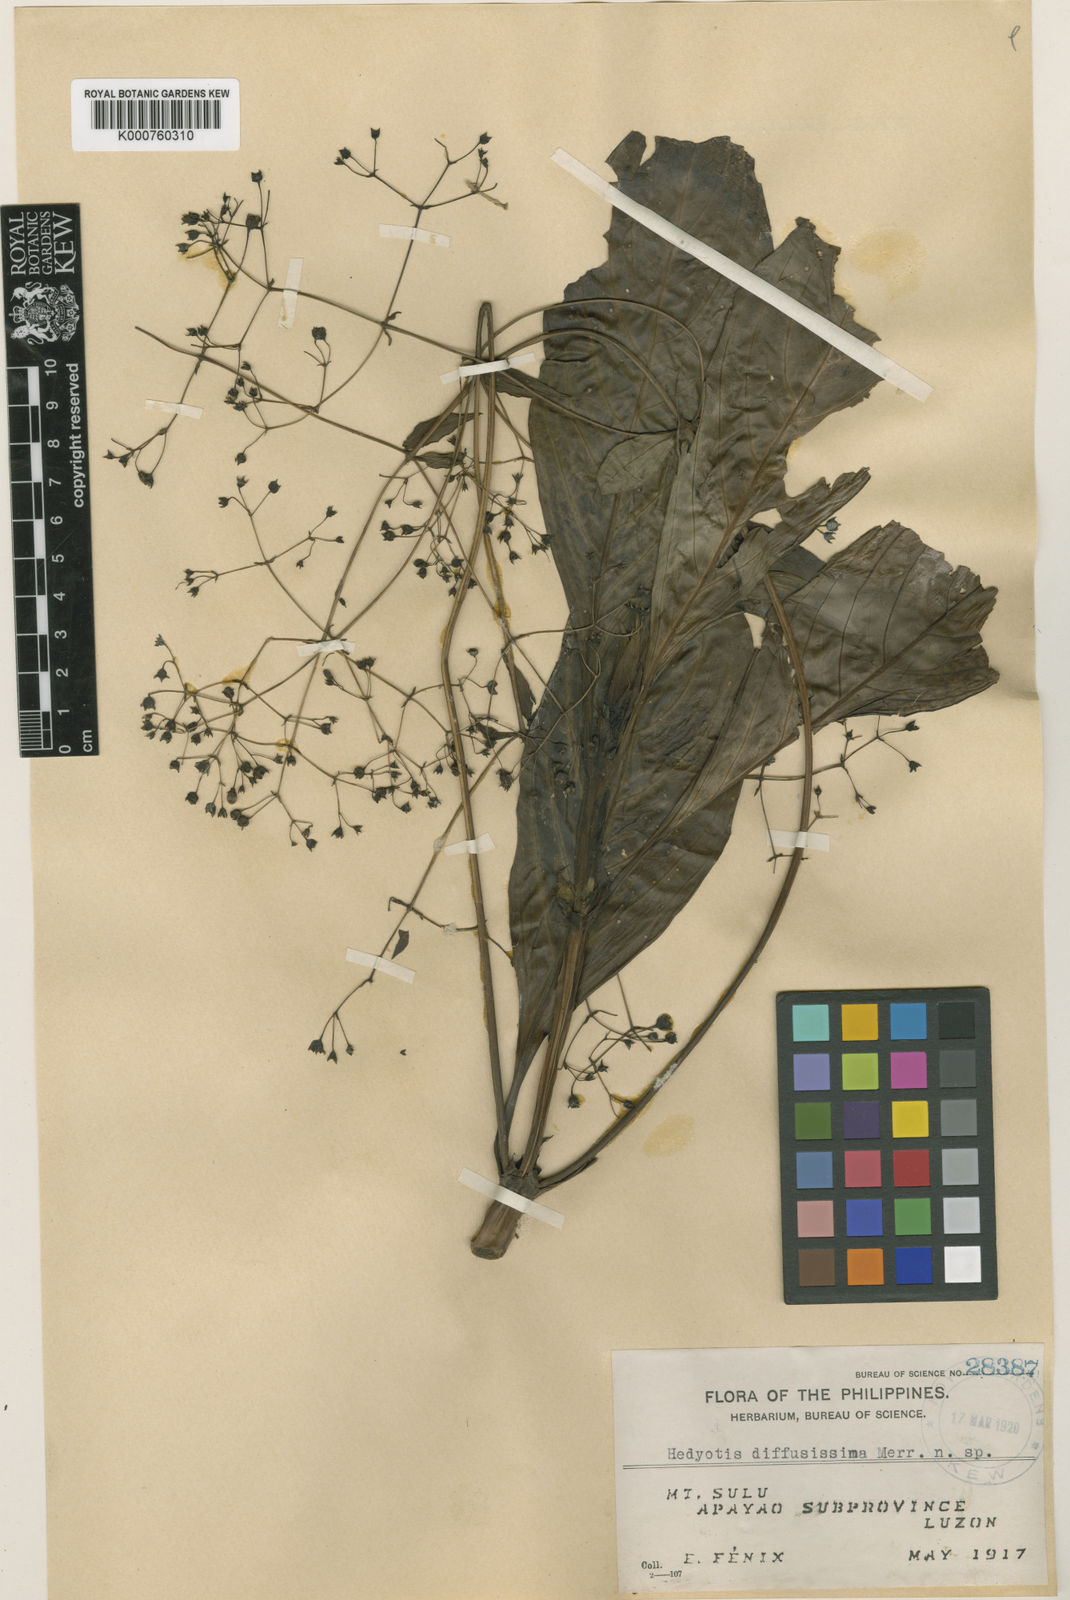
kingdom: Plantae
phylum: Tracheophyta
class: Magnoliopsida
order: Gentianales
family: Rubiaceae
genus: Hedyotis
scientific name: Hedyotis diffusissima
